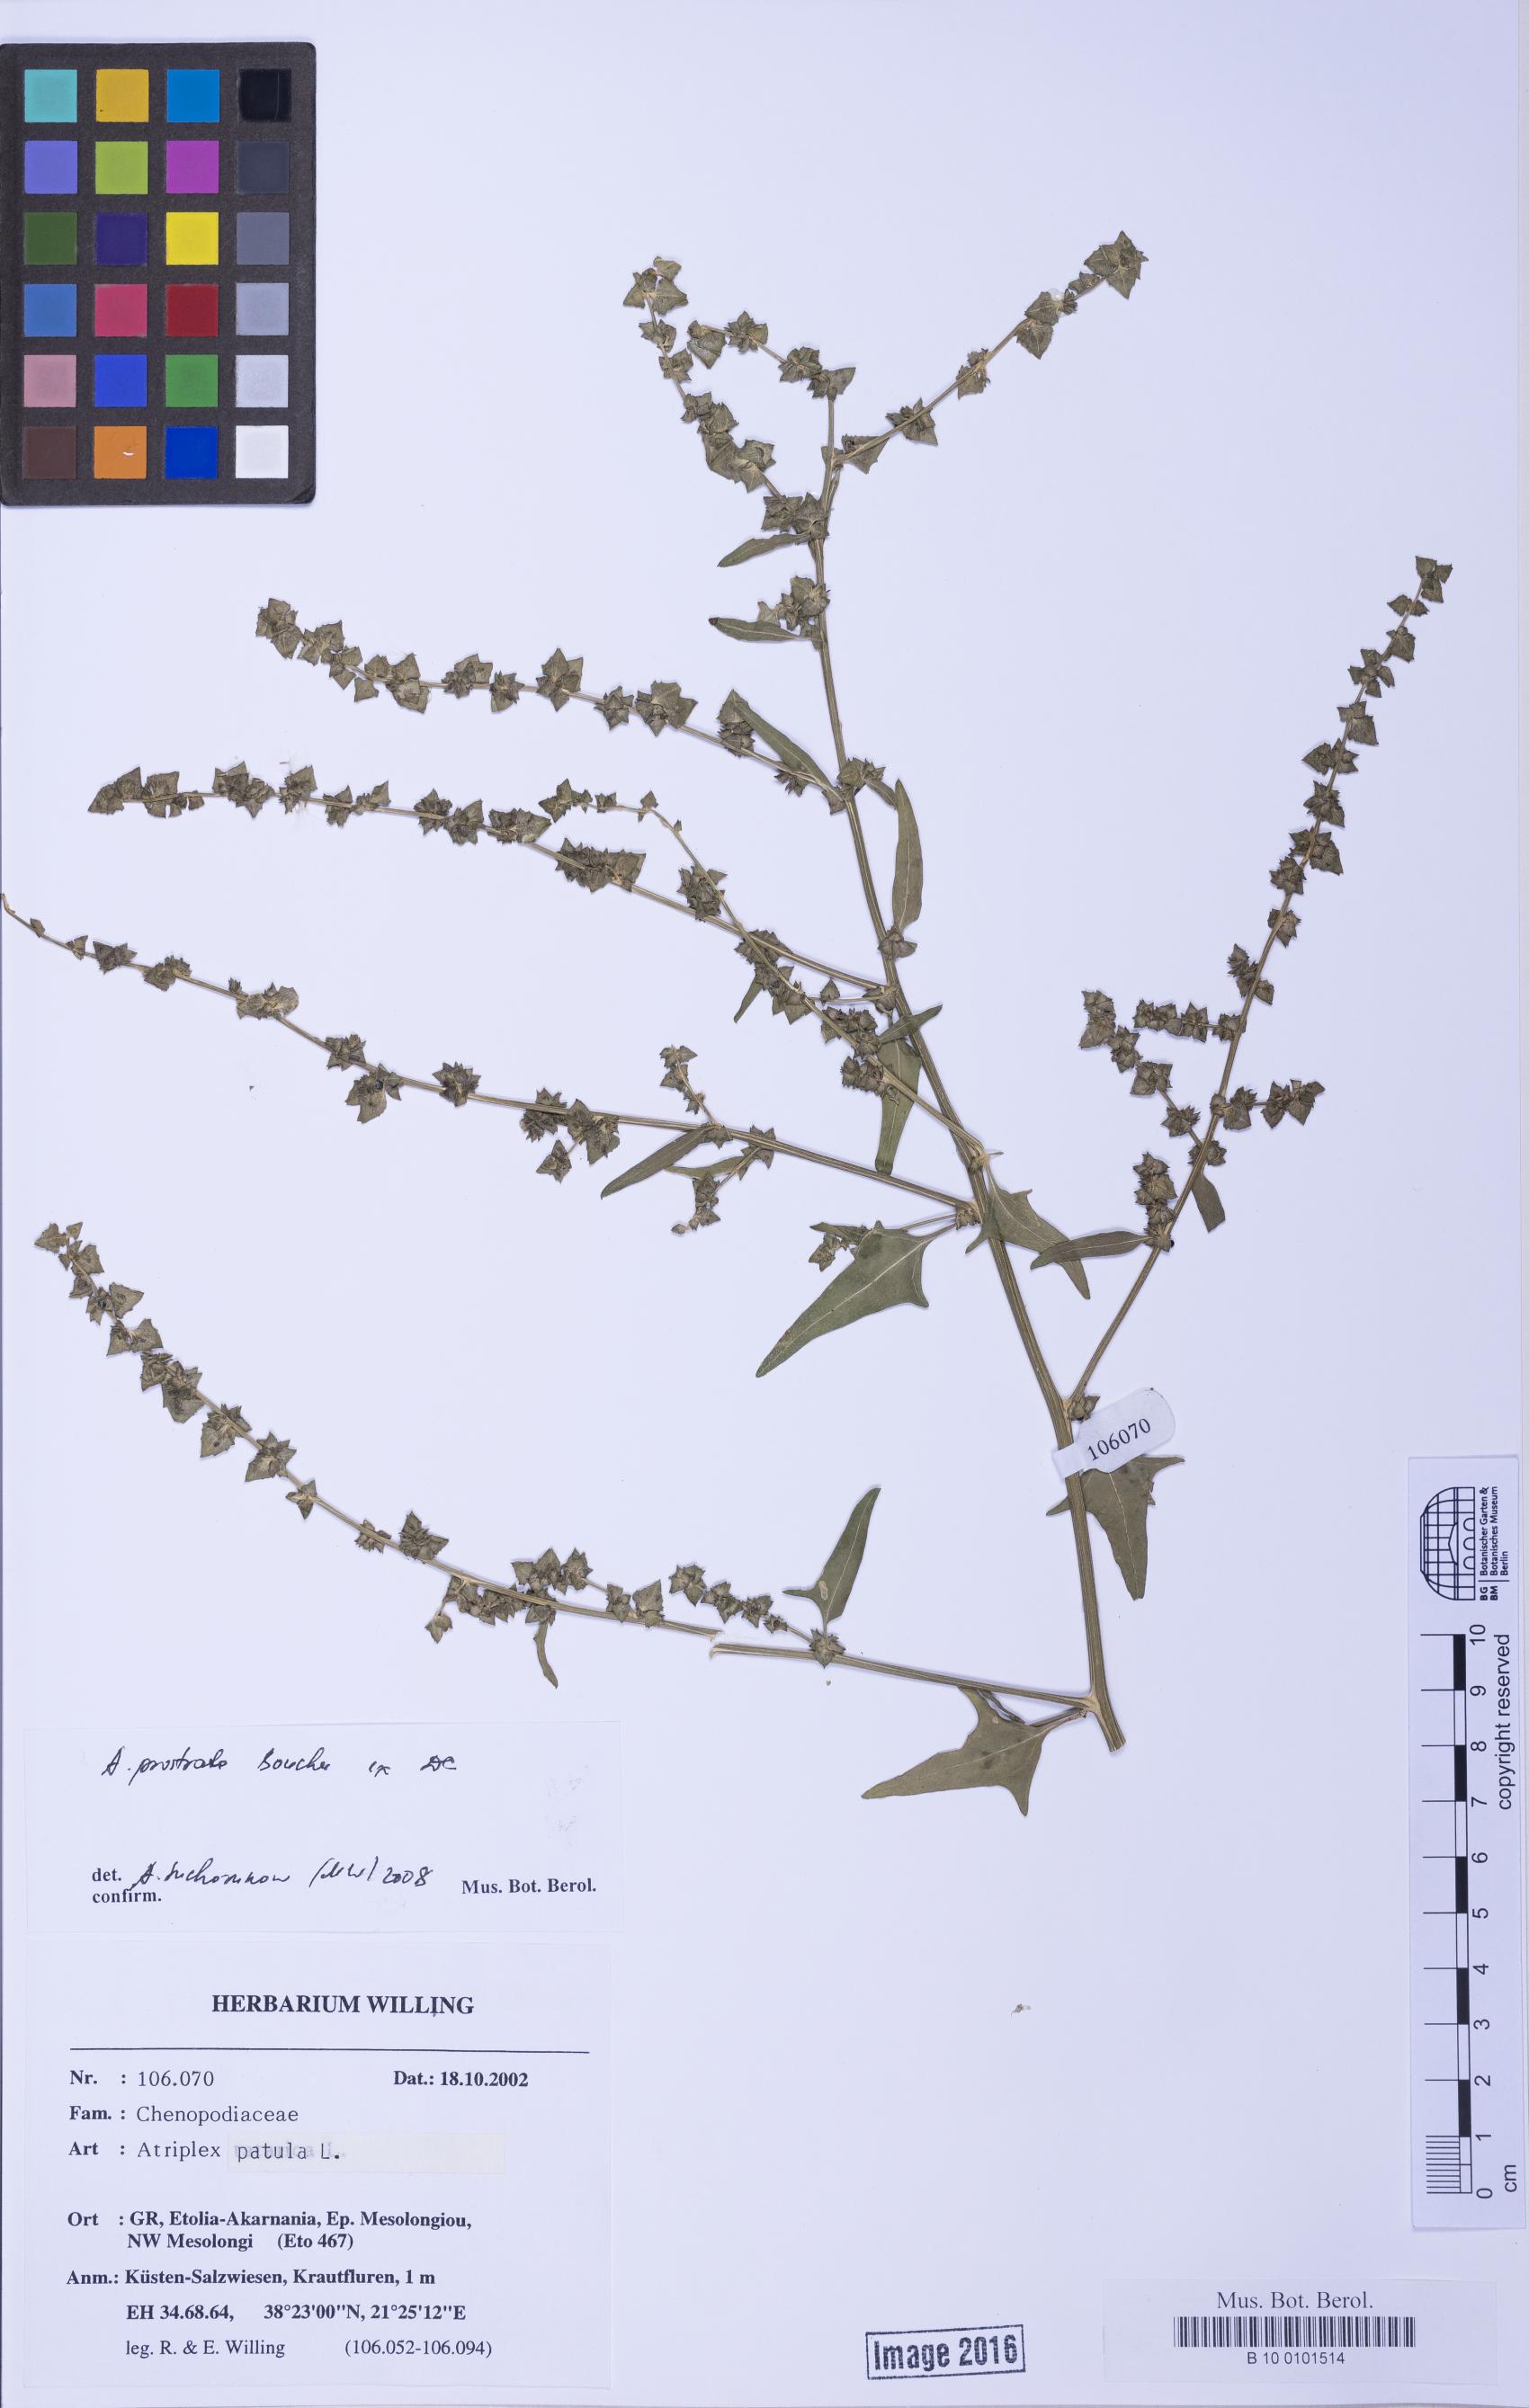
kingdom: Plantae
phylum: Tracheophyta
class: Magnoliopsida
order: Caryophyllales
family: Amaranthaceae
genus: Atriplex
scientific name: Atriplex prostrata
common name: Spear-leaved orache
